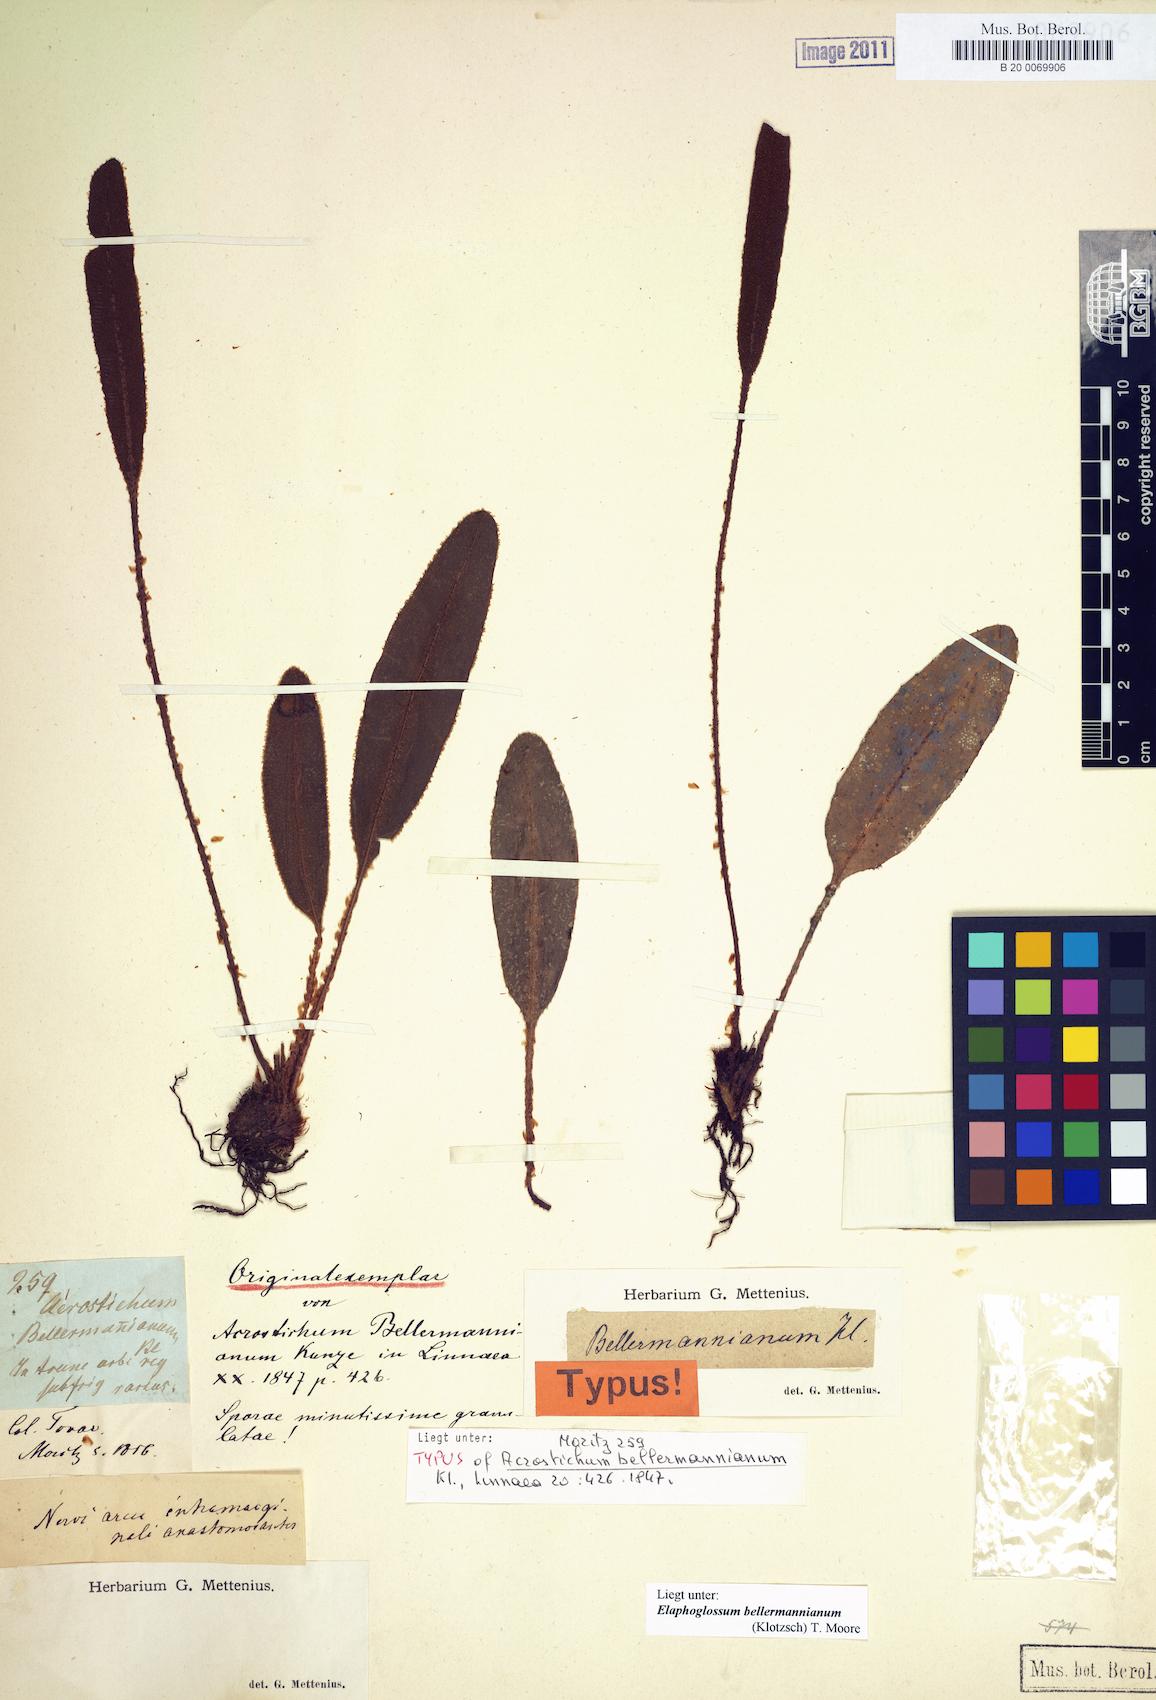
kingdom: Plantae
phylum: Tracheophyta
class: Polypodiopsida
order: Polypodiales
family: Dryopteridaceae
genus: Elaphoglossum
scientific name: Elaphoglossum bellermannianum
